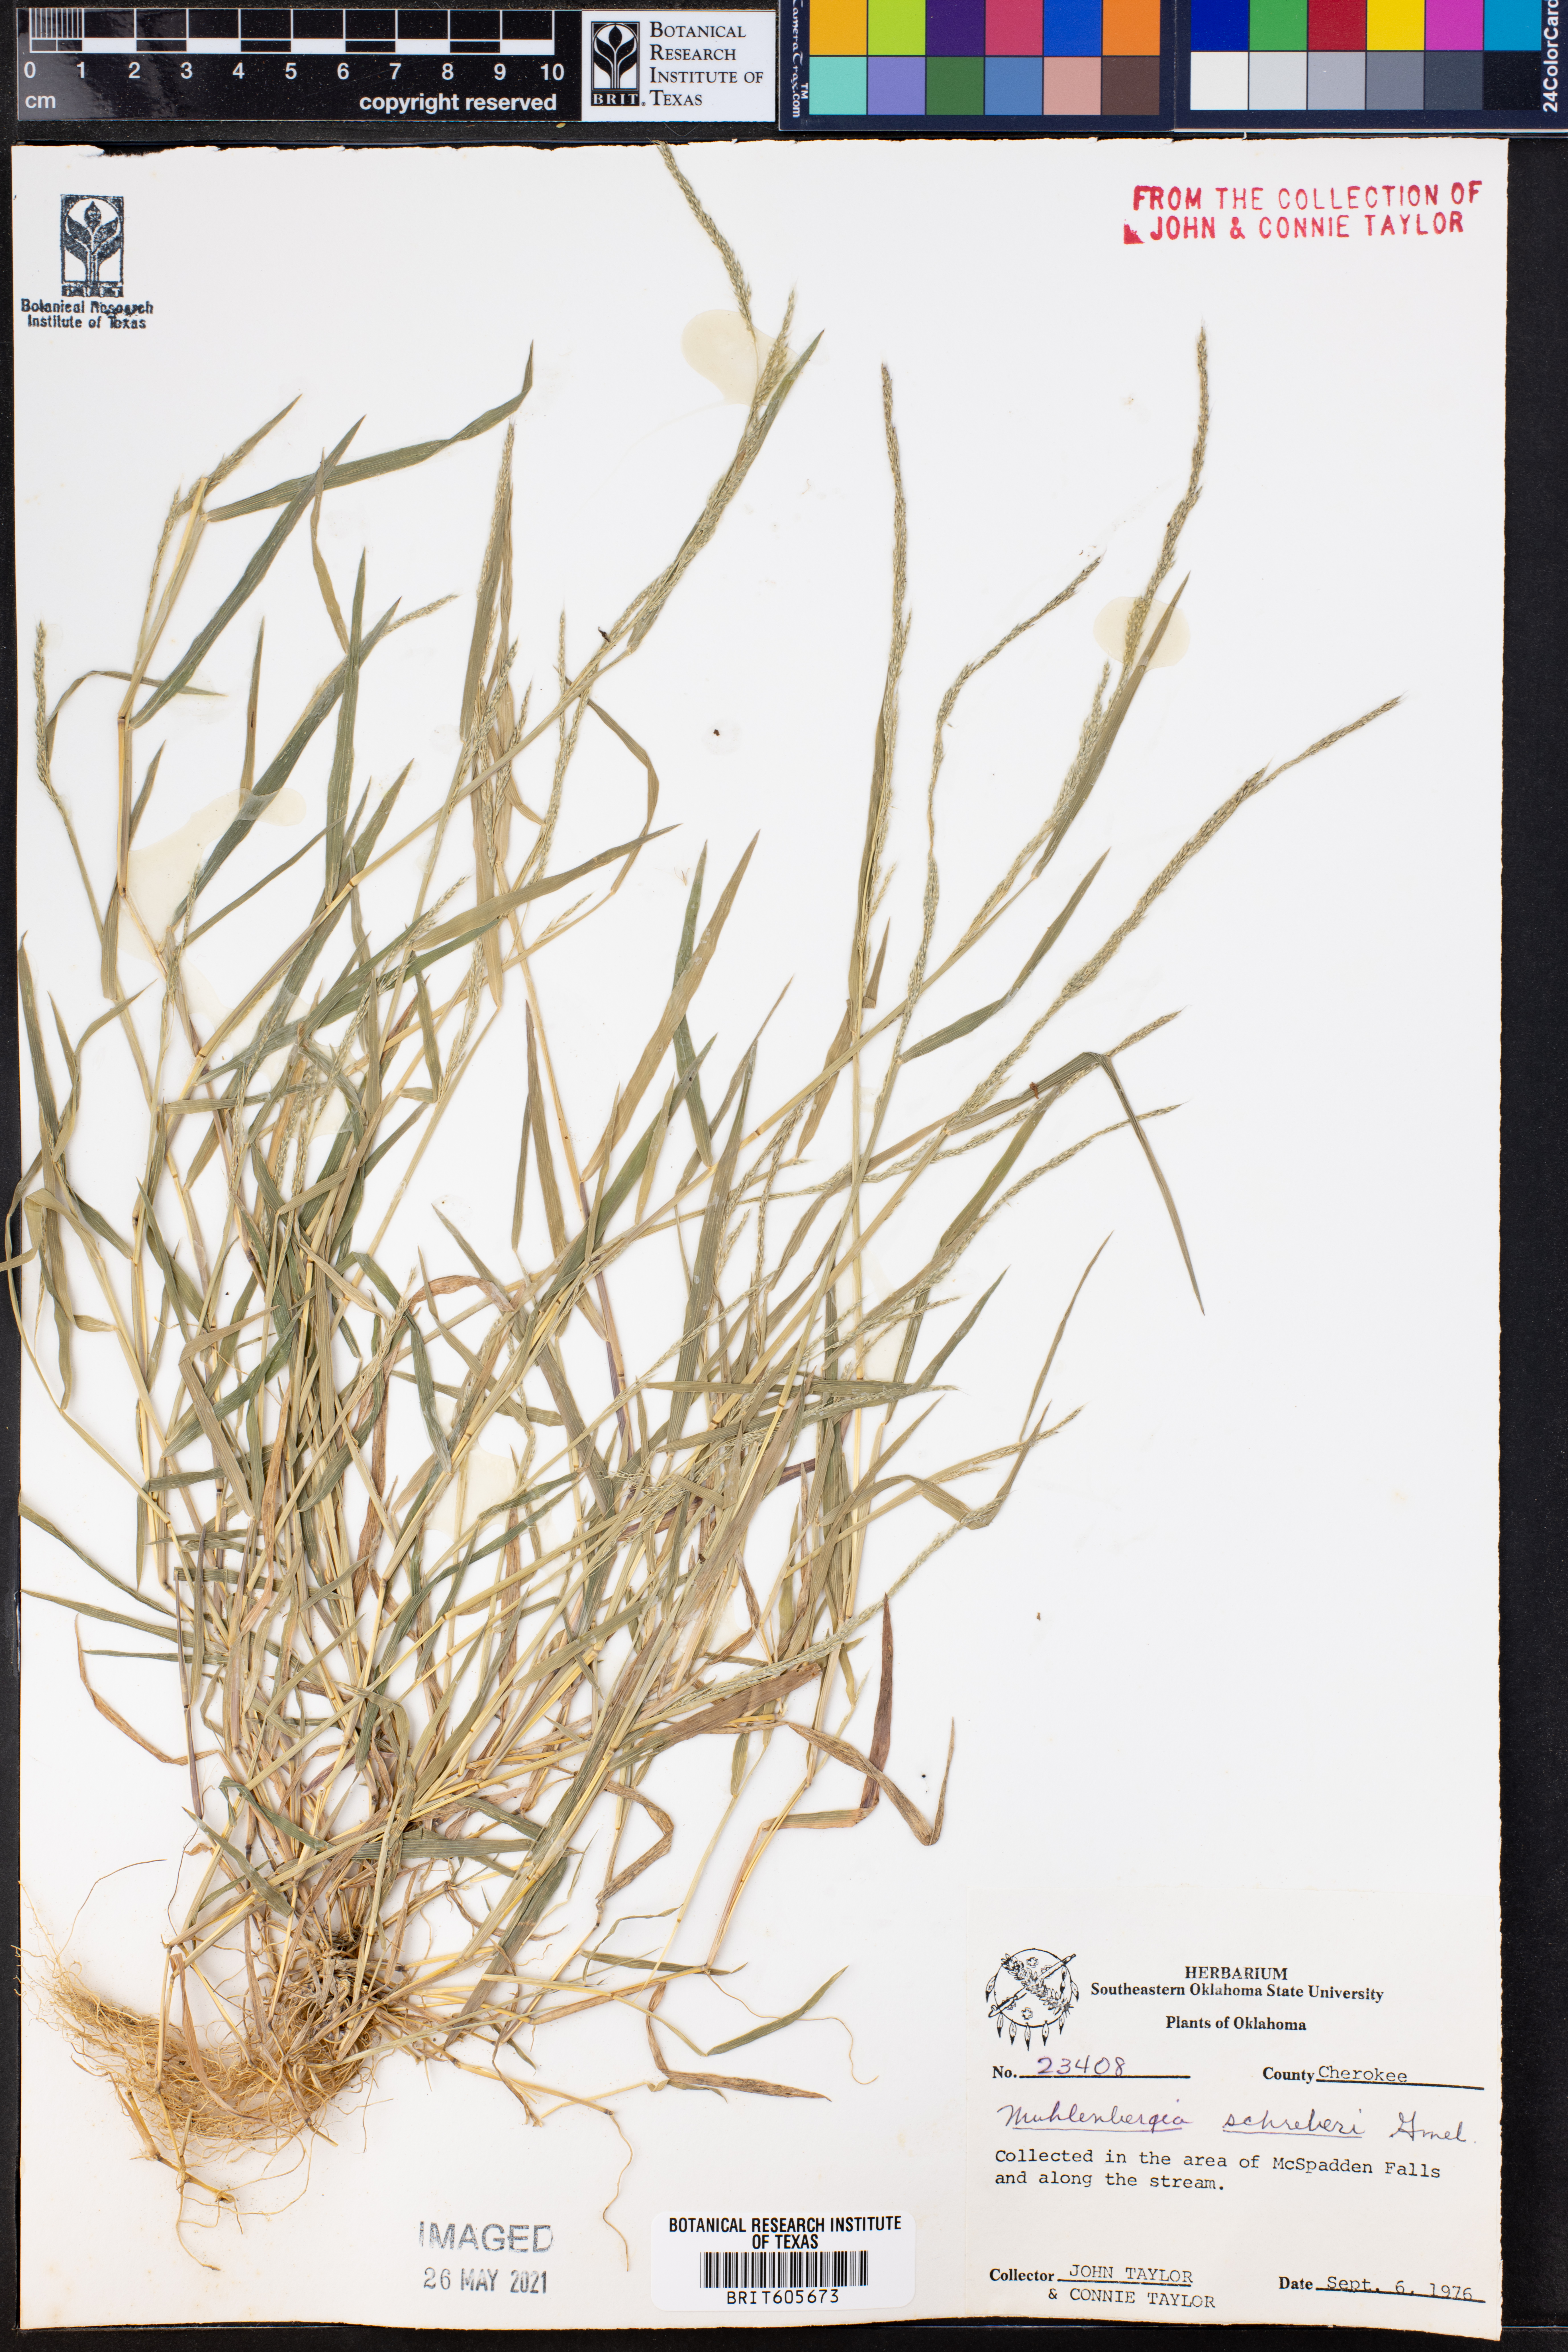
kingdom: Plantae
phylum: Tracheophyta
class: Liliopsida
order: Poales
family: Poaceae
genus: Muhlenbergia
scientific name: Muhlenbergia schreberi
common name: Nimblewill
